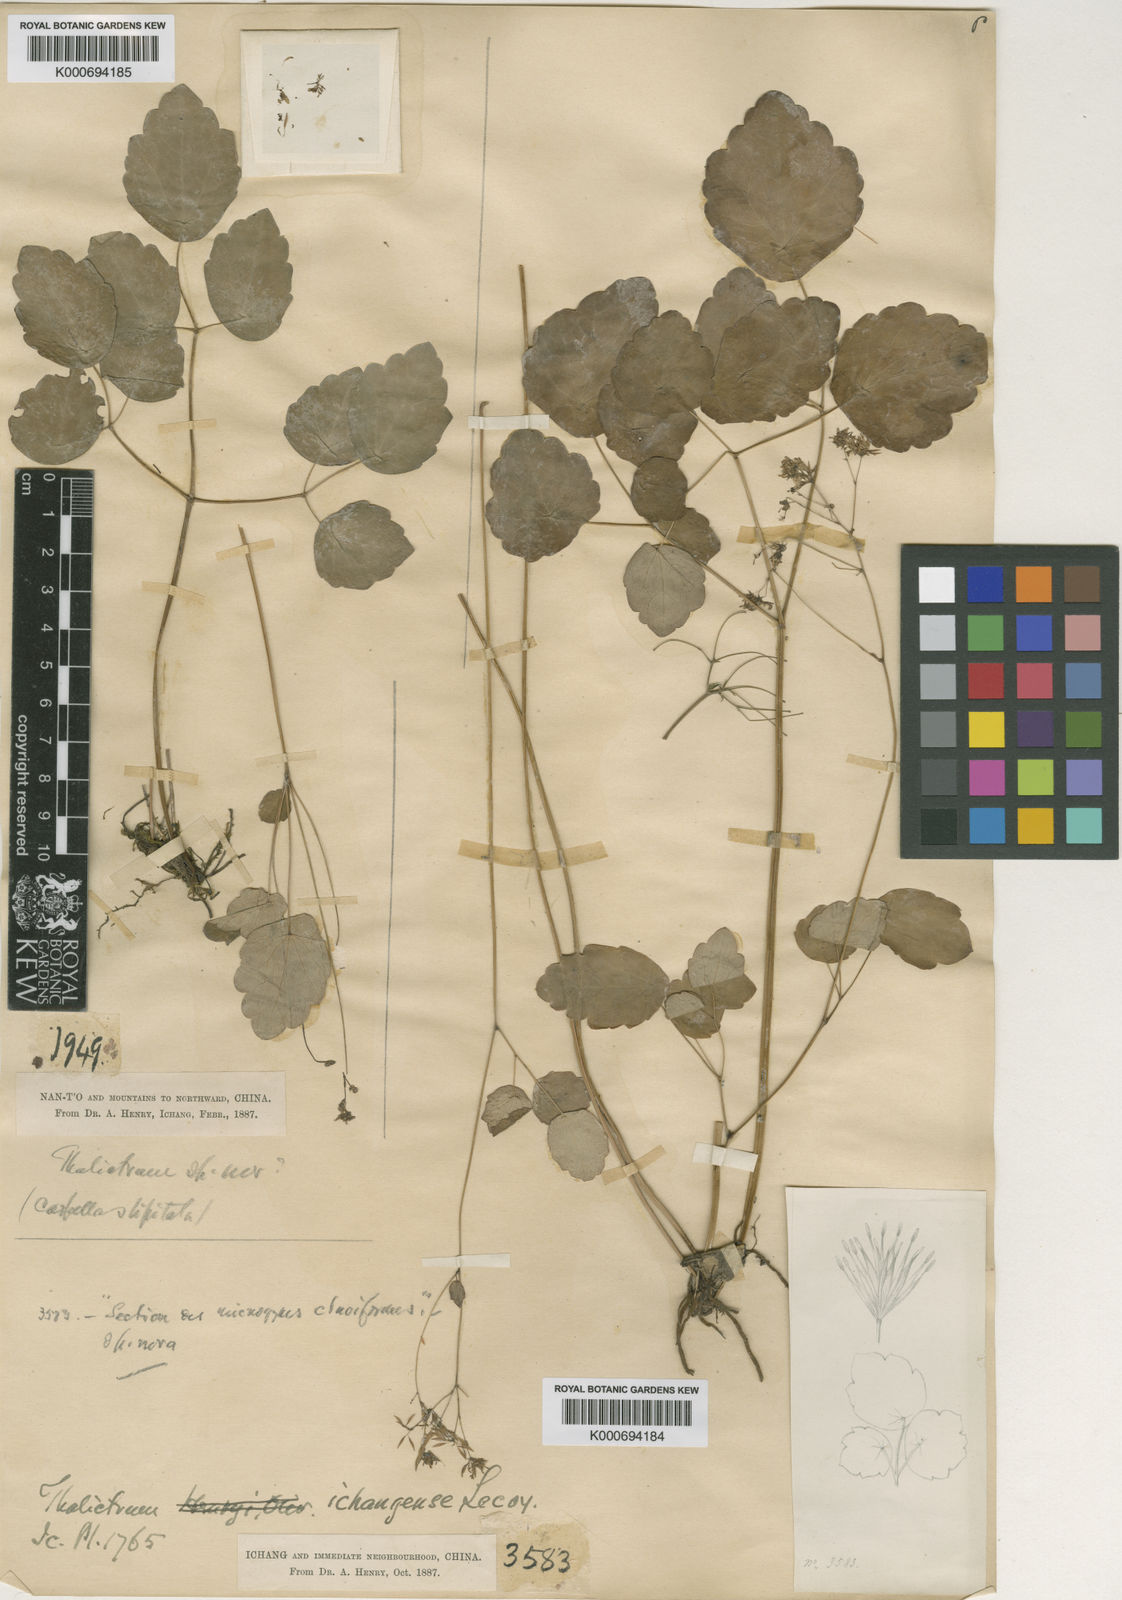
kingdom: Plantae
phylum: Tracheophyta
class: Magnoliopsida
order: Ranunculales
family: Ranunculaceae
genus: Thalictrum
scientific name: Thalictrum ichangense
